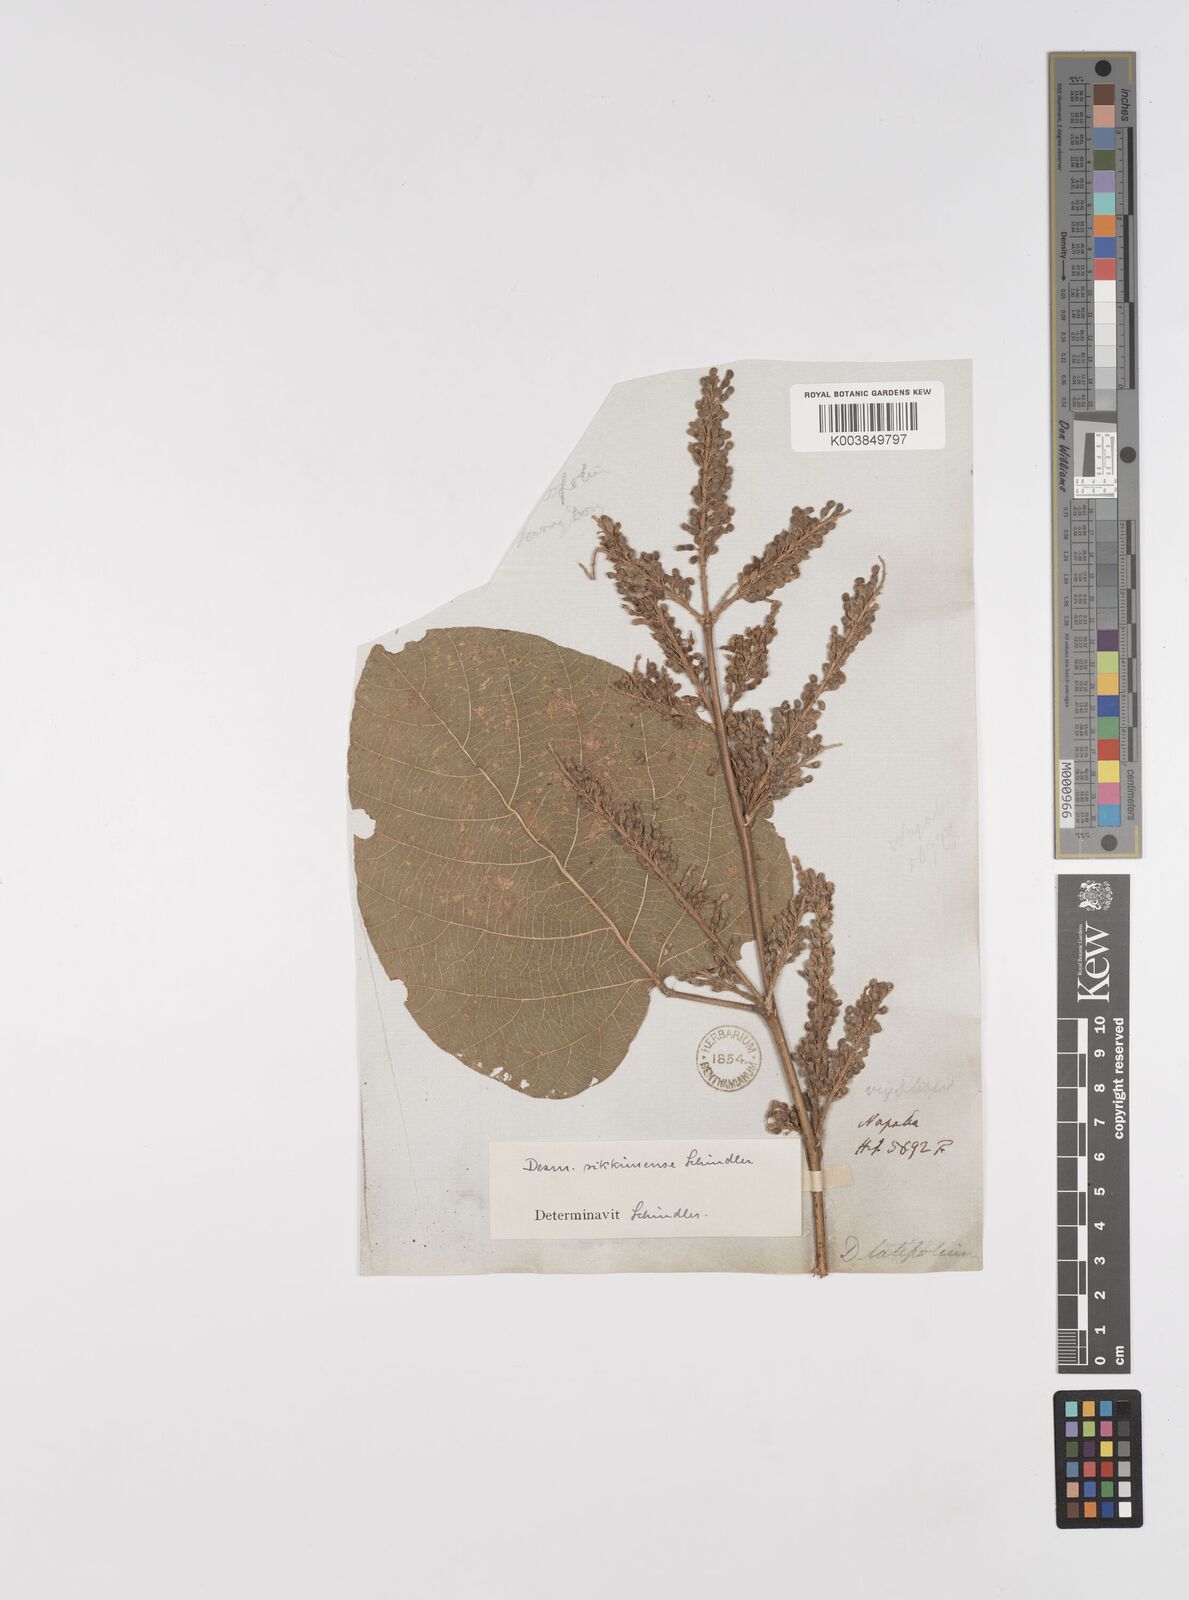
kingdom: Plantae
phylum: Tracheophyta
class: Magnoliopsida
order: Fabales
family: Fabaceae
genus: Polhillides
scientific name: Polhillides velutina
